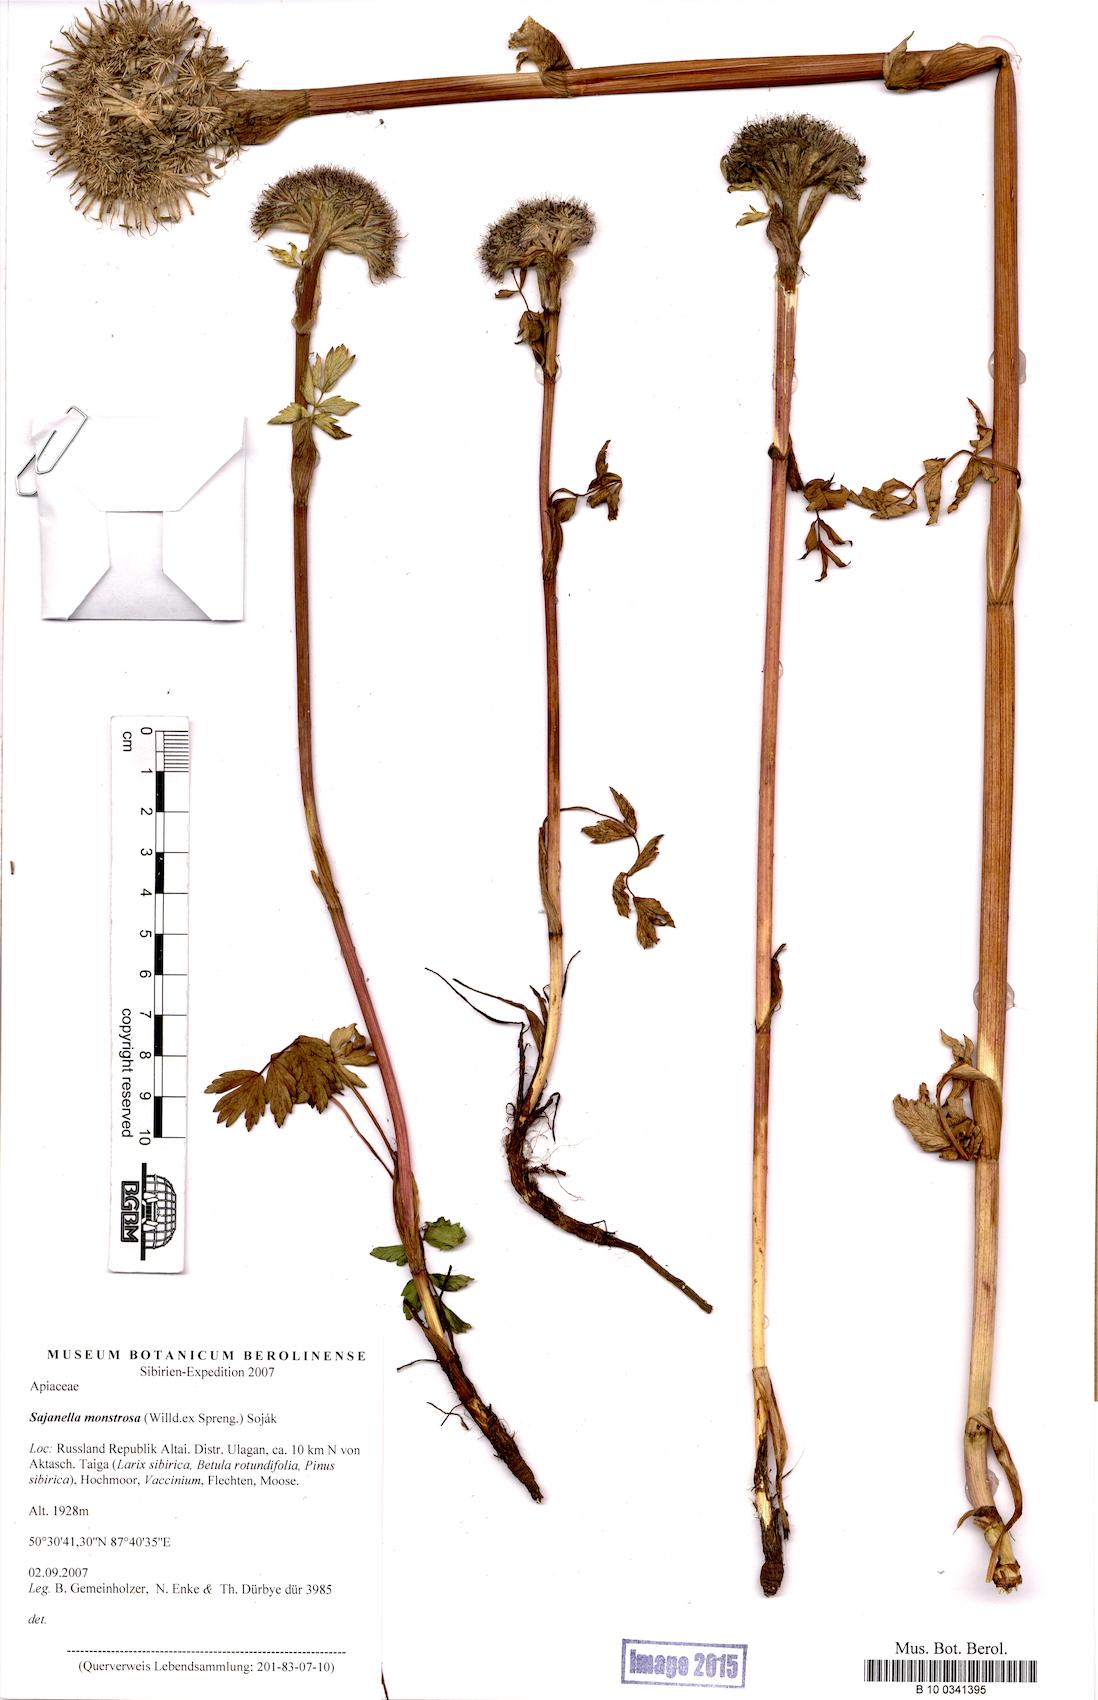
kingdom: Plantae
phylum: Tracheophyta
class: Magnoliopsida
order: Apiales
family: Apiaceae
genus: Sajanella
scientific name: Sajanella monstrosa
